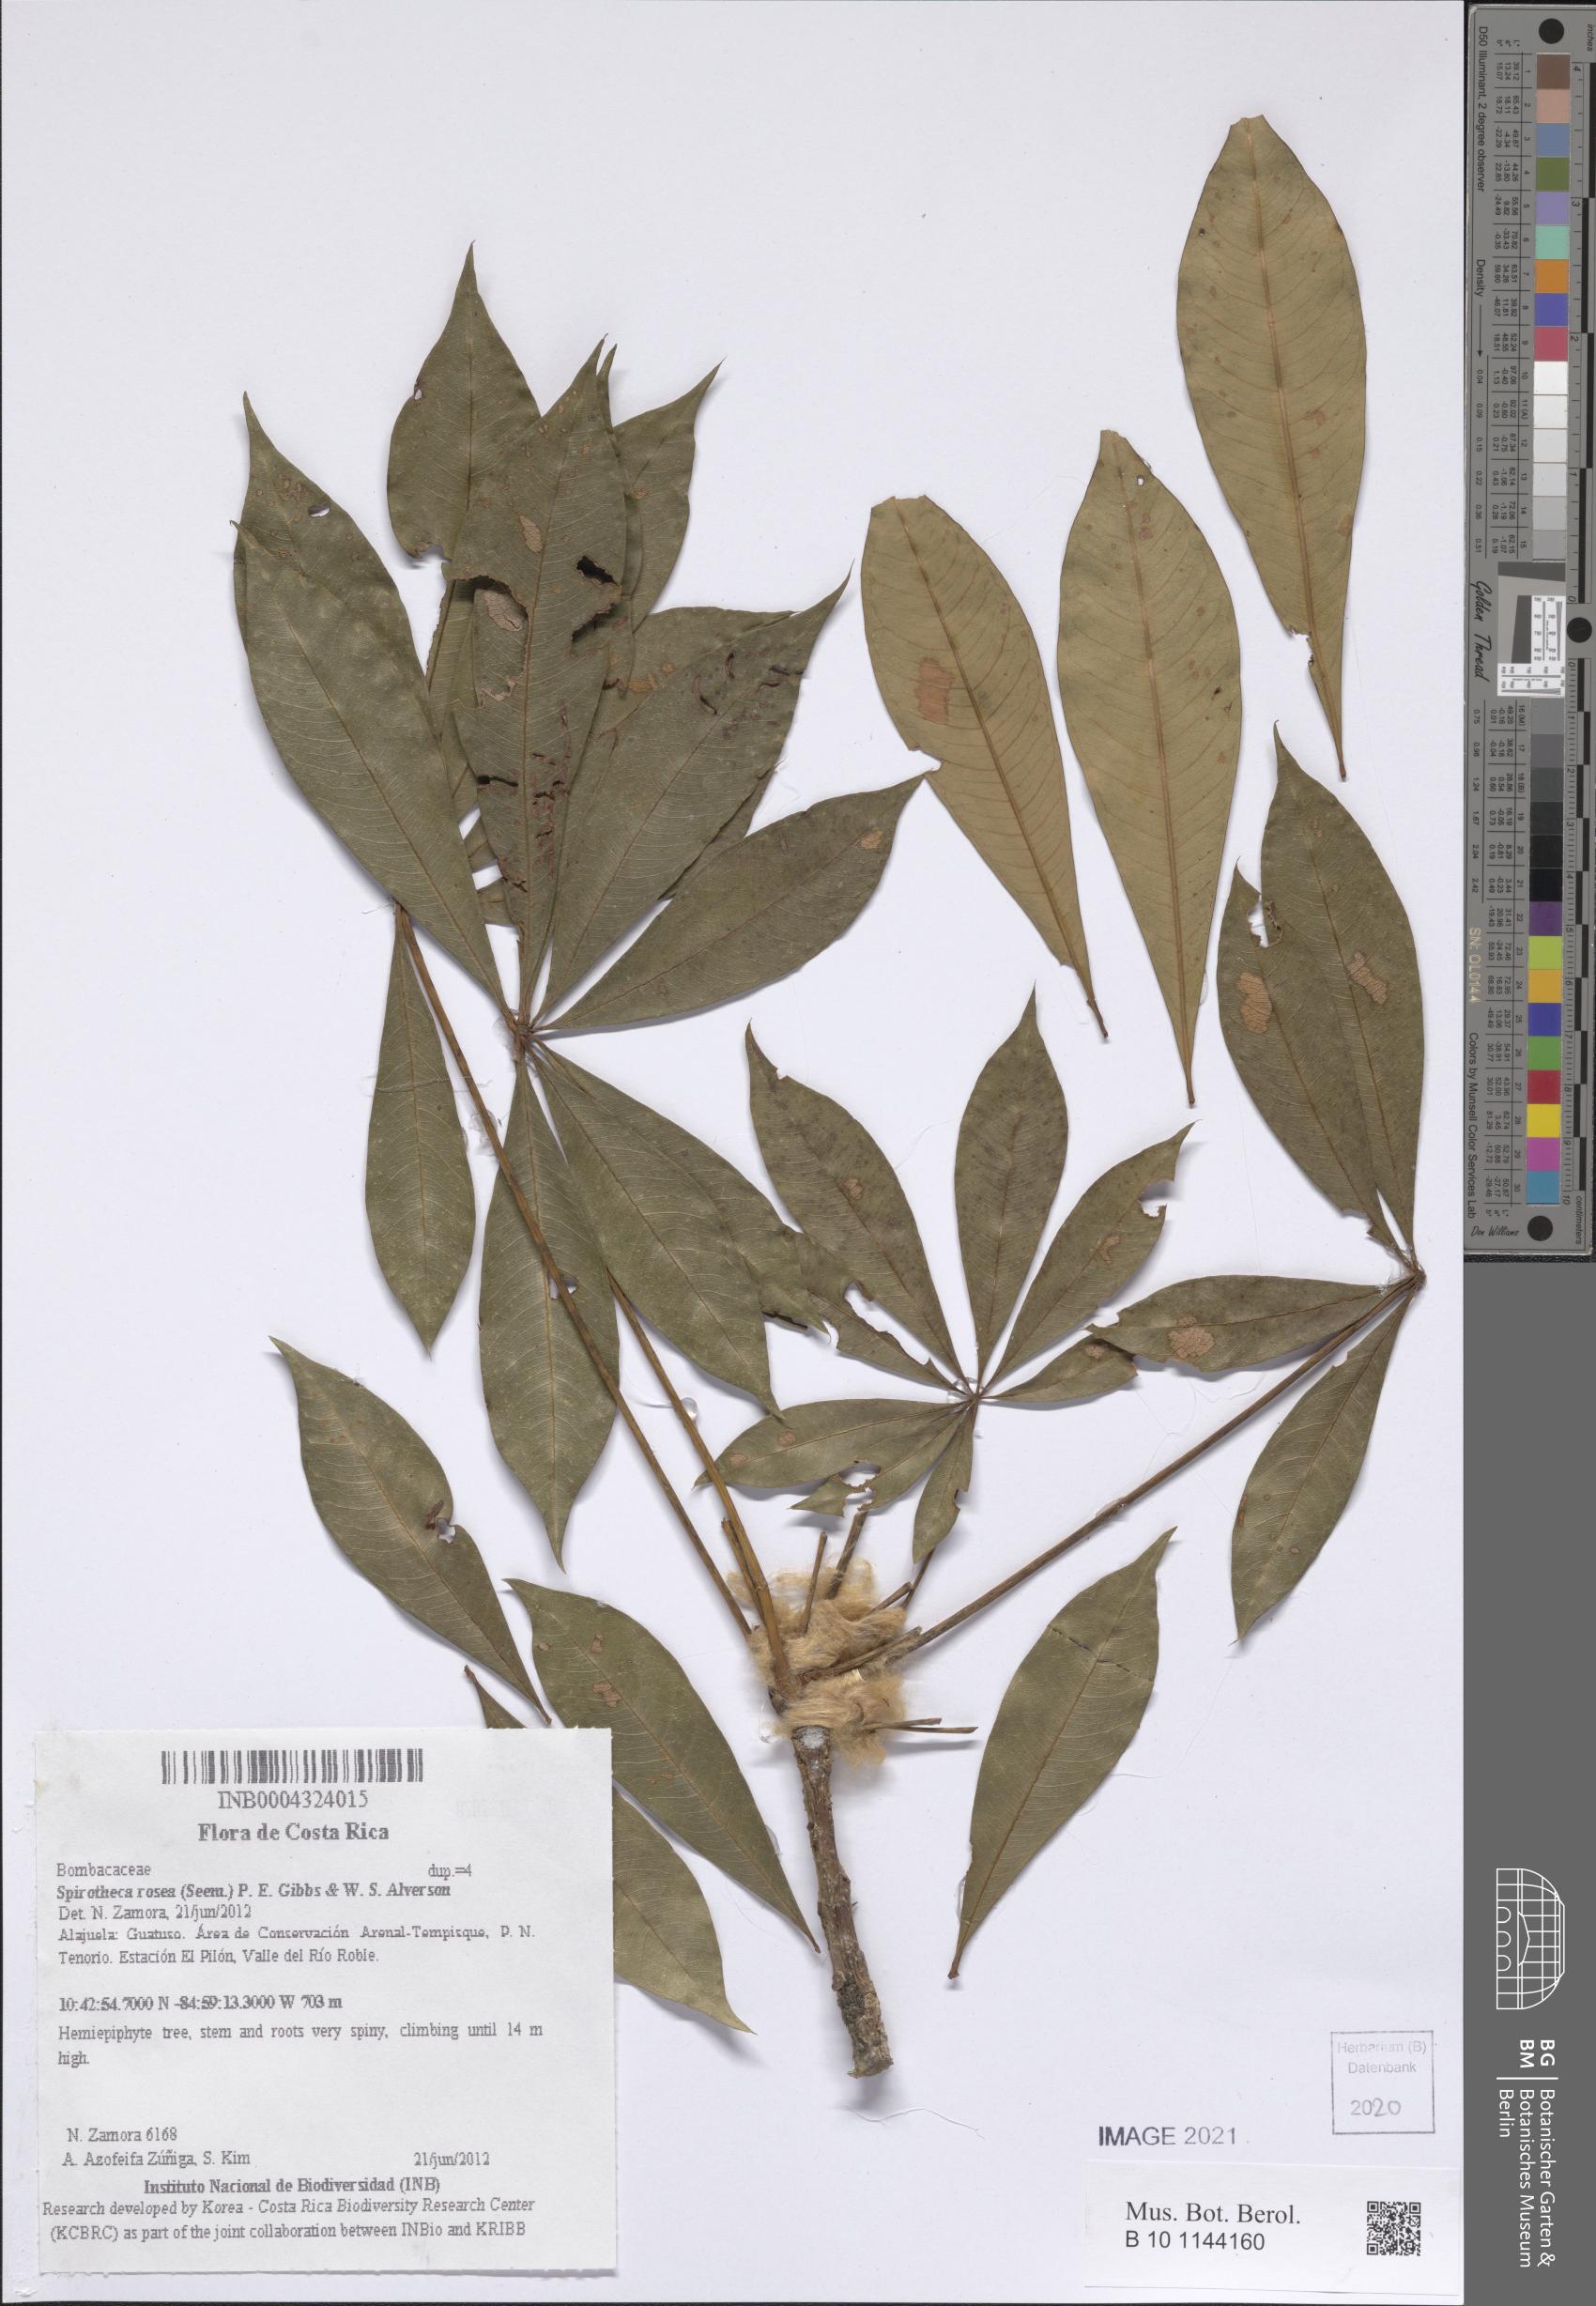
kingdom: Plantae
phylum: Tracheophyta
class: Magnoliopsida
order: Malvales
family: Malvaceae
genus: Spirotheca
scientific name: Spirotheca rosea
